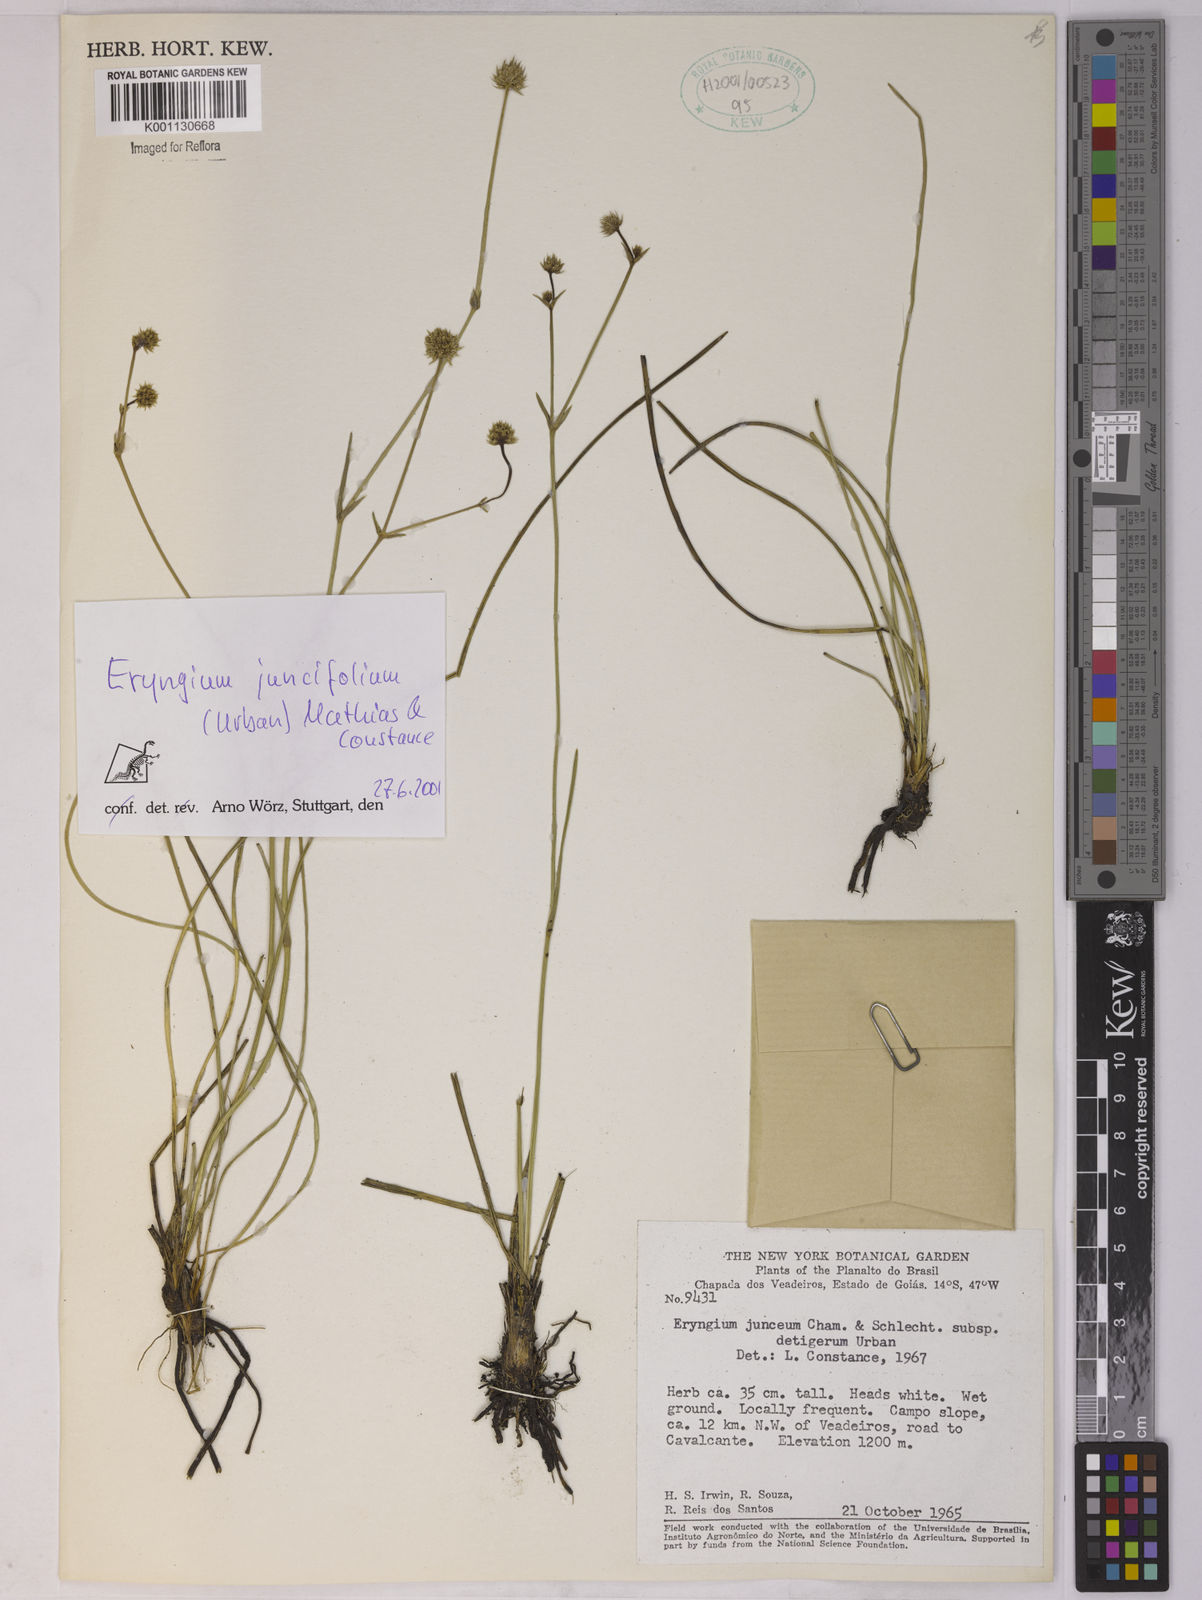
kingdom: Plantae
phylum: Tracheophyta
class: Magnoliopsida
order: Apiales
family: Apiaceae
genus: Eryngium
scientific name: Eryngium juncifolium
